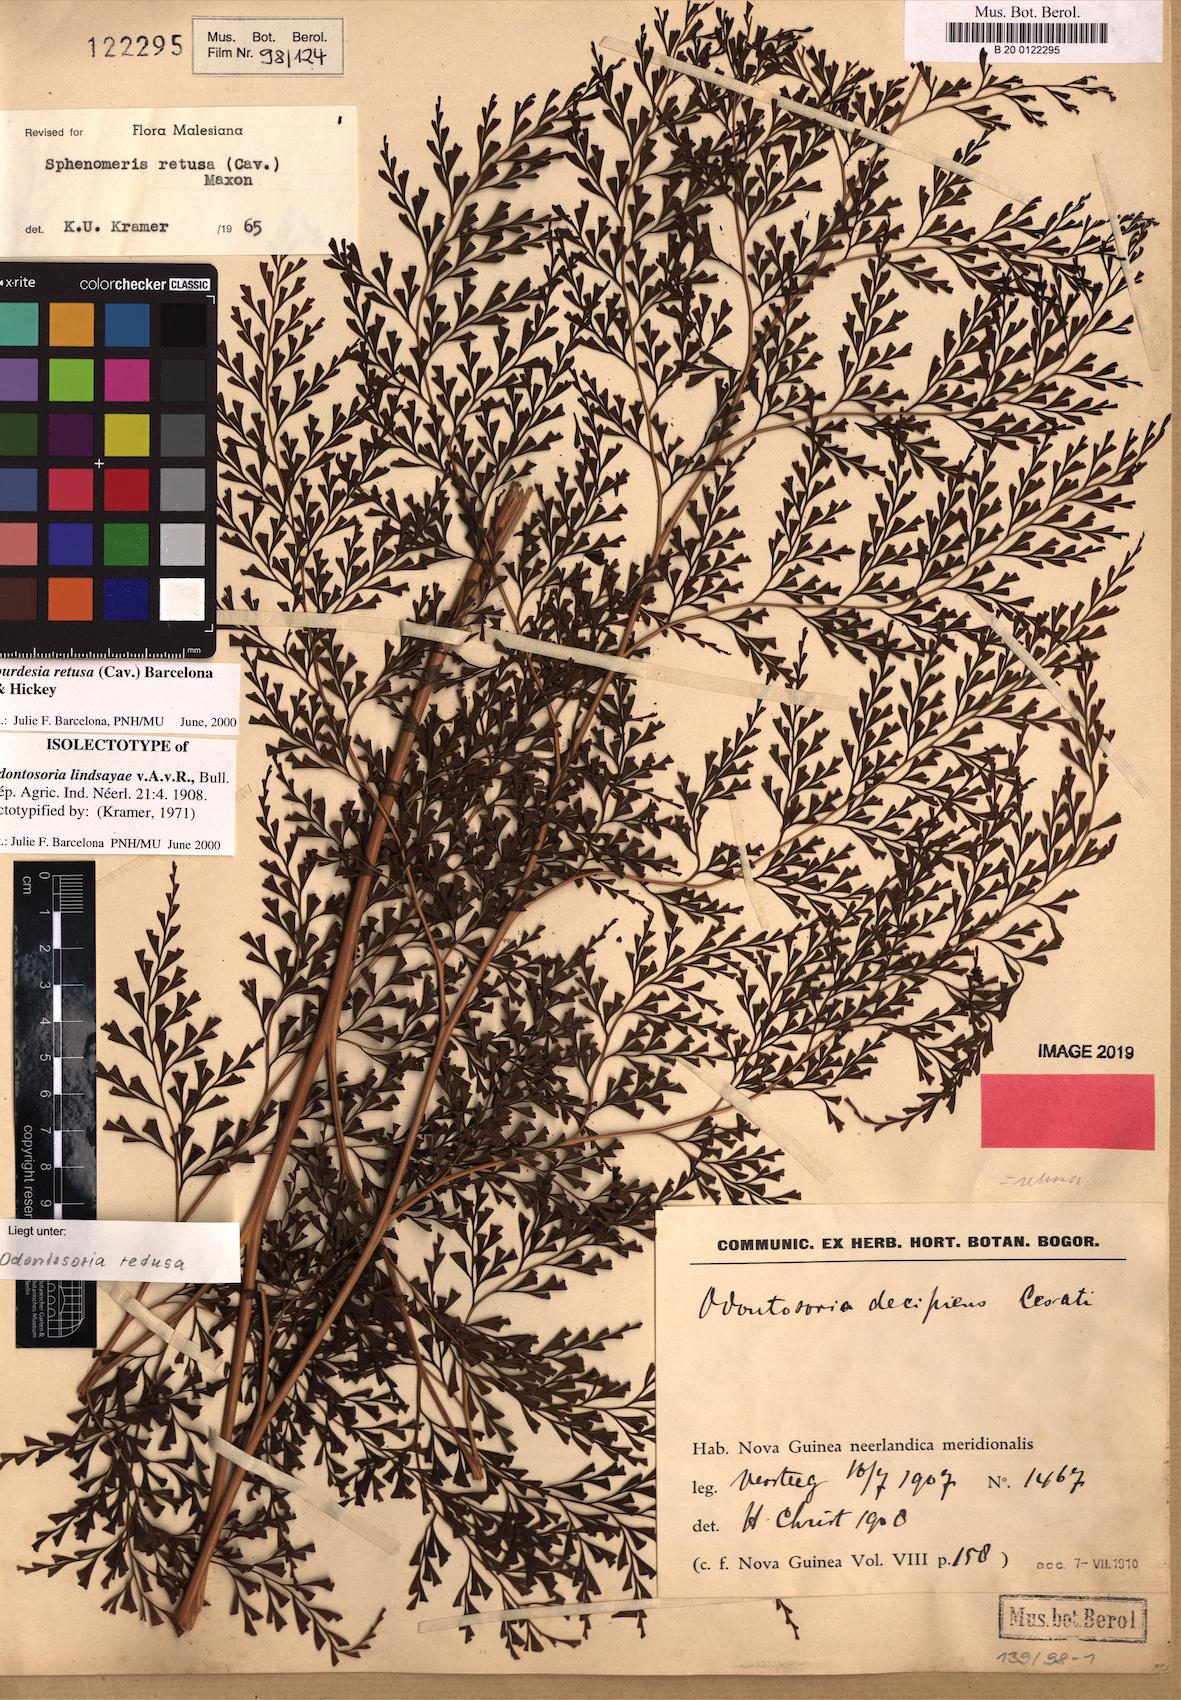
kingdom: Plantae
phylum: Tracheophyta
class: Polypodiopsida
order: Polypodiales
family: Lindsaeaceae
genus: Odontosoria
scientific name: Odontosoria retusa
